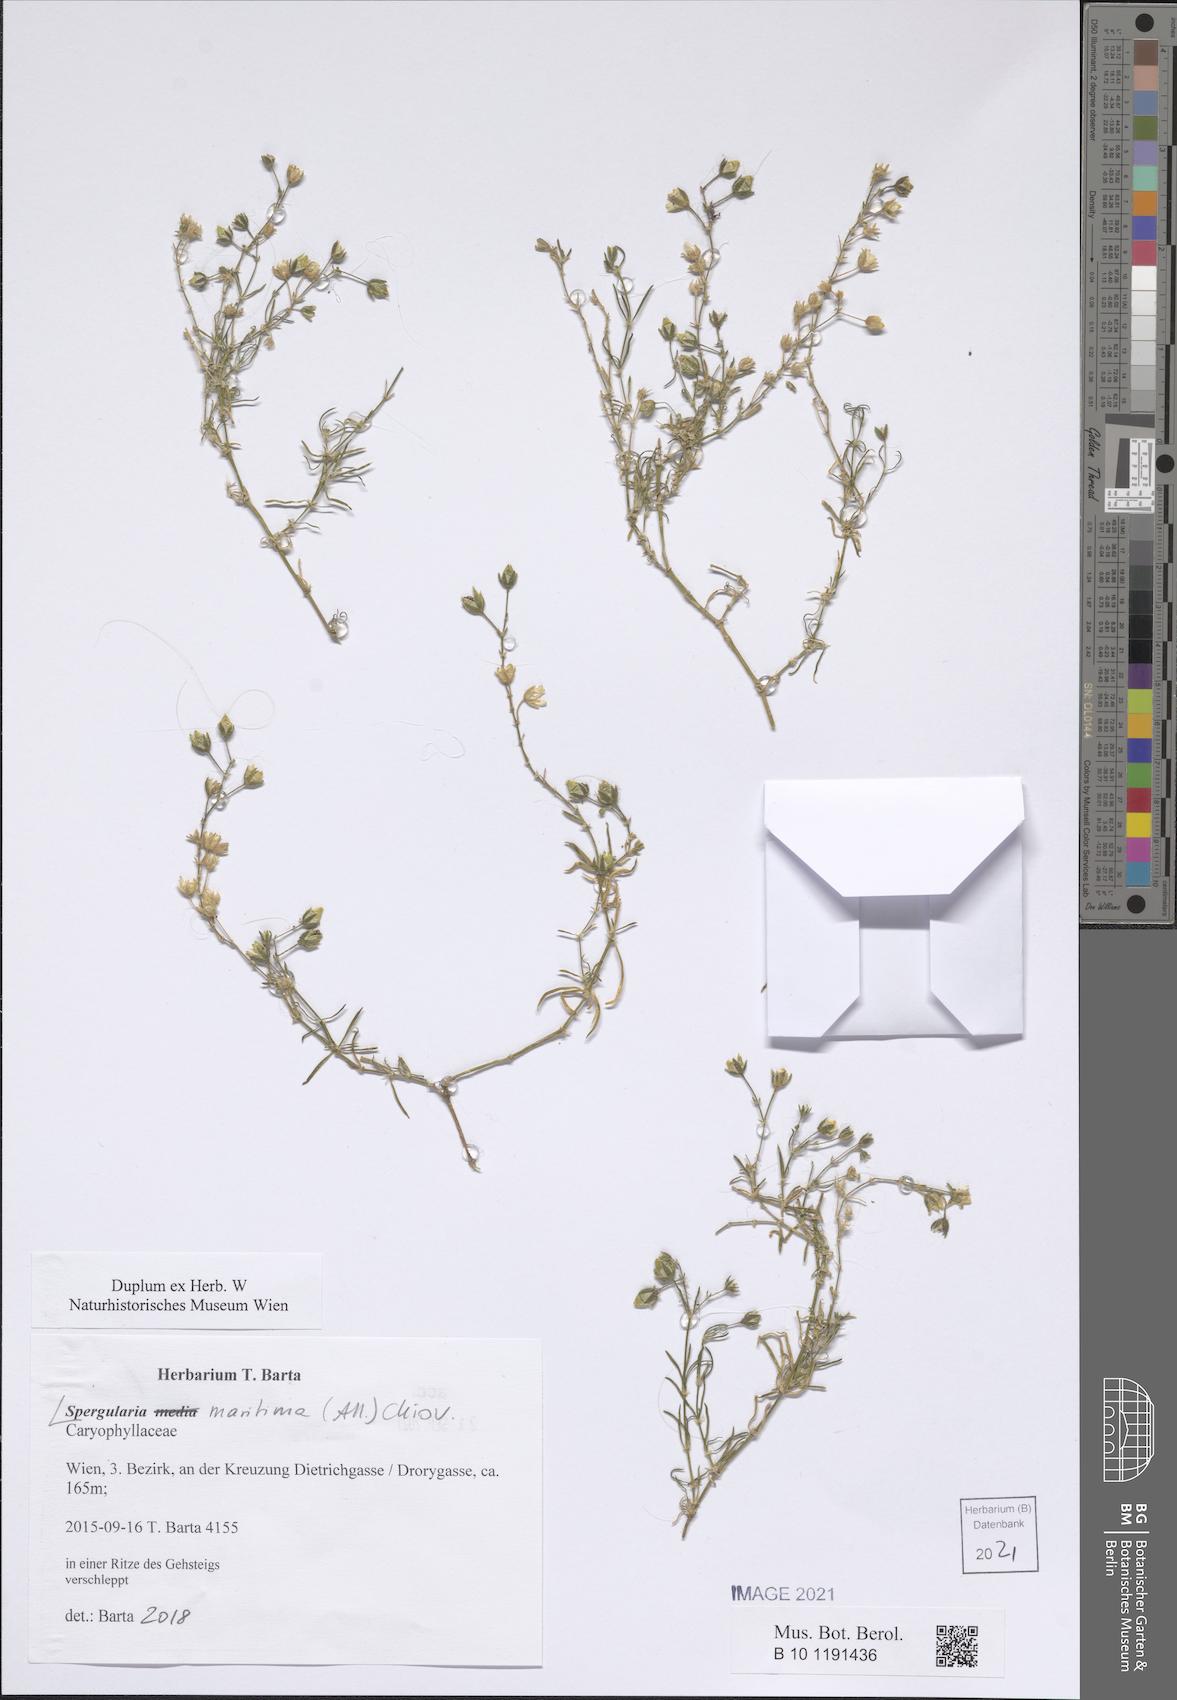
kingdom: Plantae
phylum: Tracheophyta
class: Magnoliopsida
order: Caryophyllales
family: Caryophyllaceae
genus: Spergularia
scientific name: Spergularia media
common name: Greater sea-spurrey
